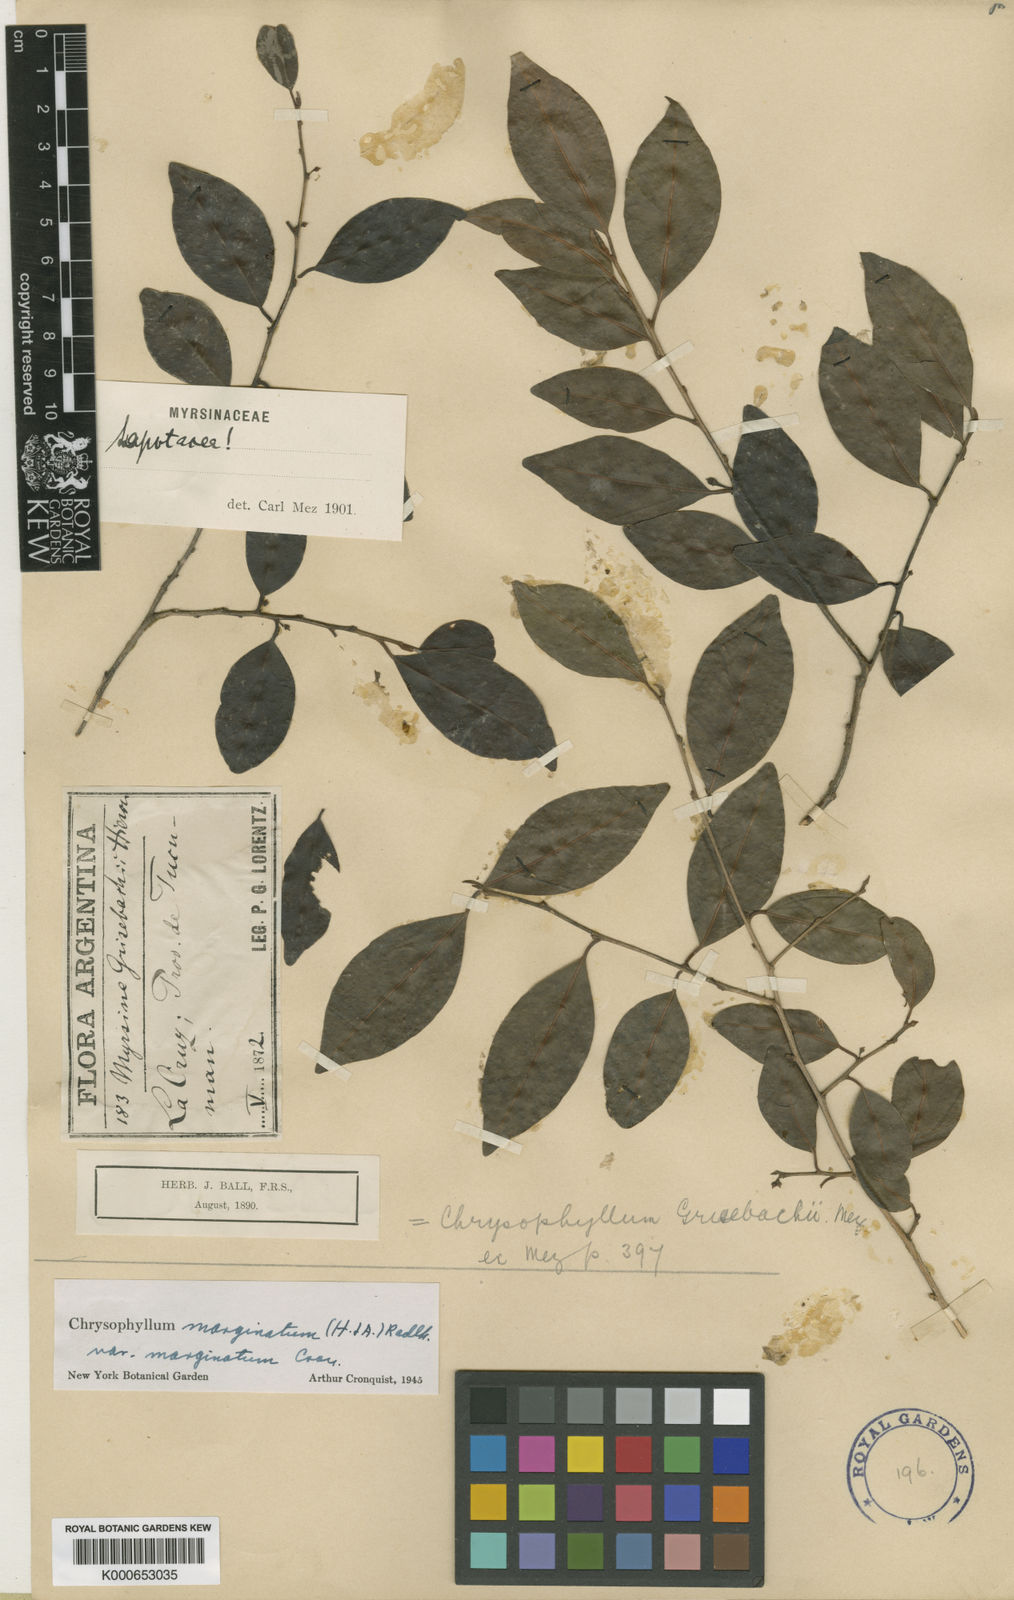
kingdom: Plantae
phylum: Tracheophyta
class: Magnoliopsida
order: Ericales
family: Sapotaceae
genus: Chrysophyllum
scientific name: Chrysophyllum marginatum
